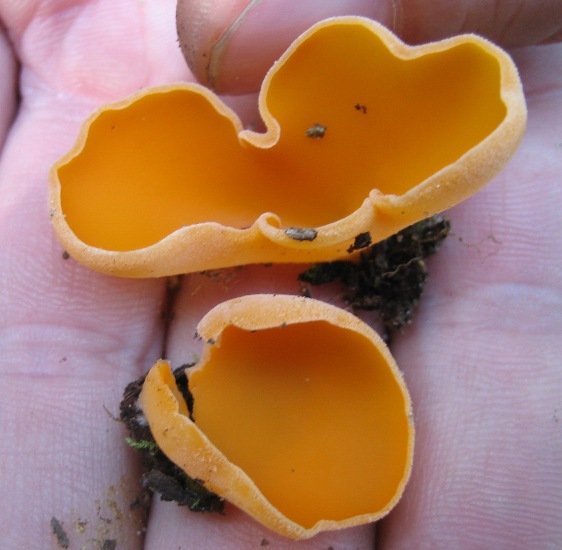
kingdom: Fungi
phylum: Ascomycota
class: Pezizomycetes
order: Pezizales
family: Pyronemataceae
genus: Aleuria
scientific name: Aleuria aurantia
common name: almindelig orangebæger
